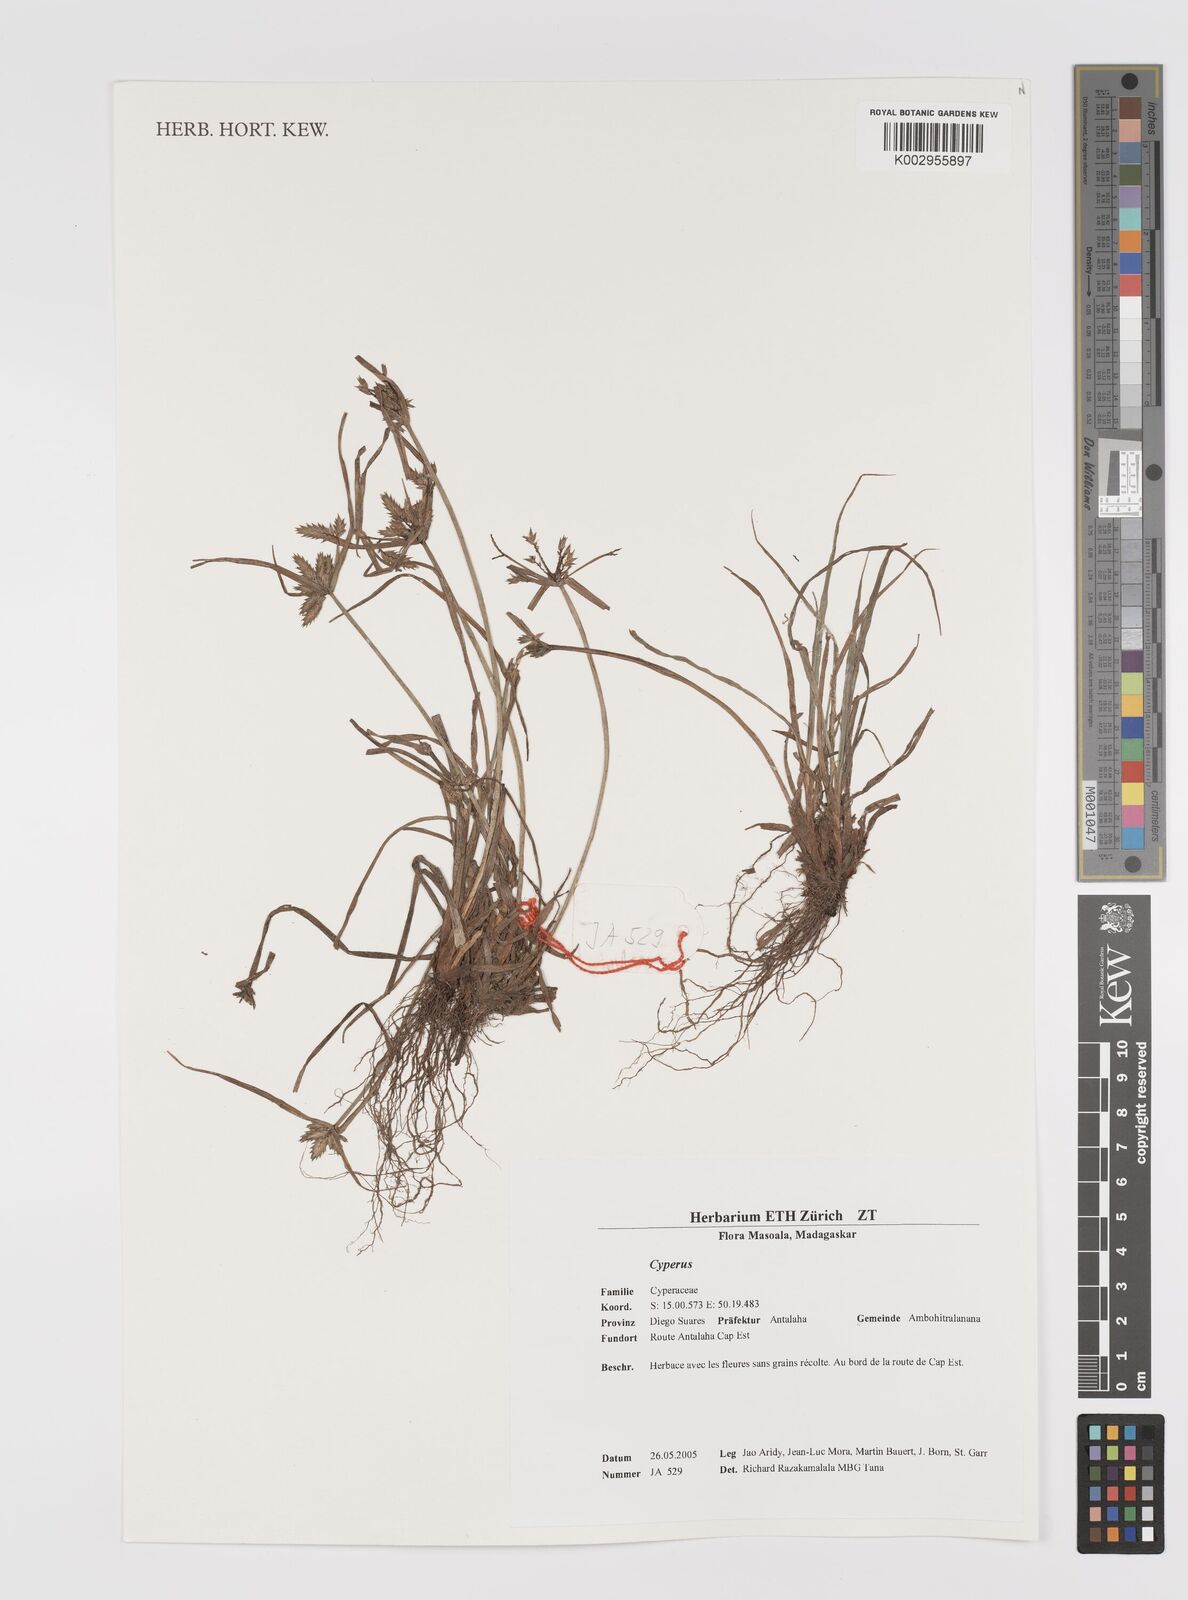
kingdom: Plantae
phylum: Tracheophyta
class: Liliopsida
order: Poales
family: Cyperaceae
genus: Cyperus
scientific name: Cyperus
